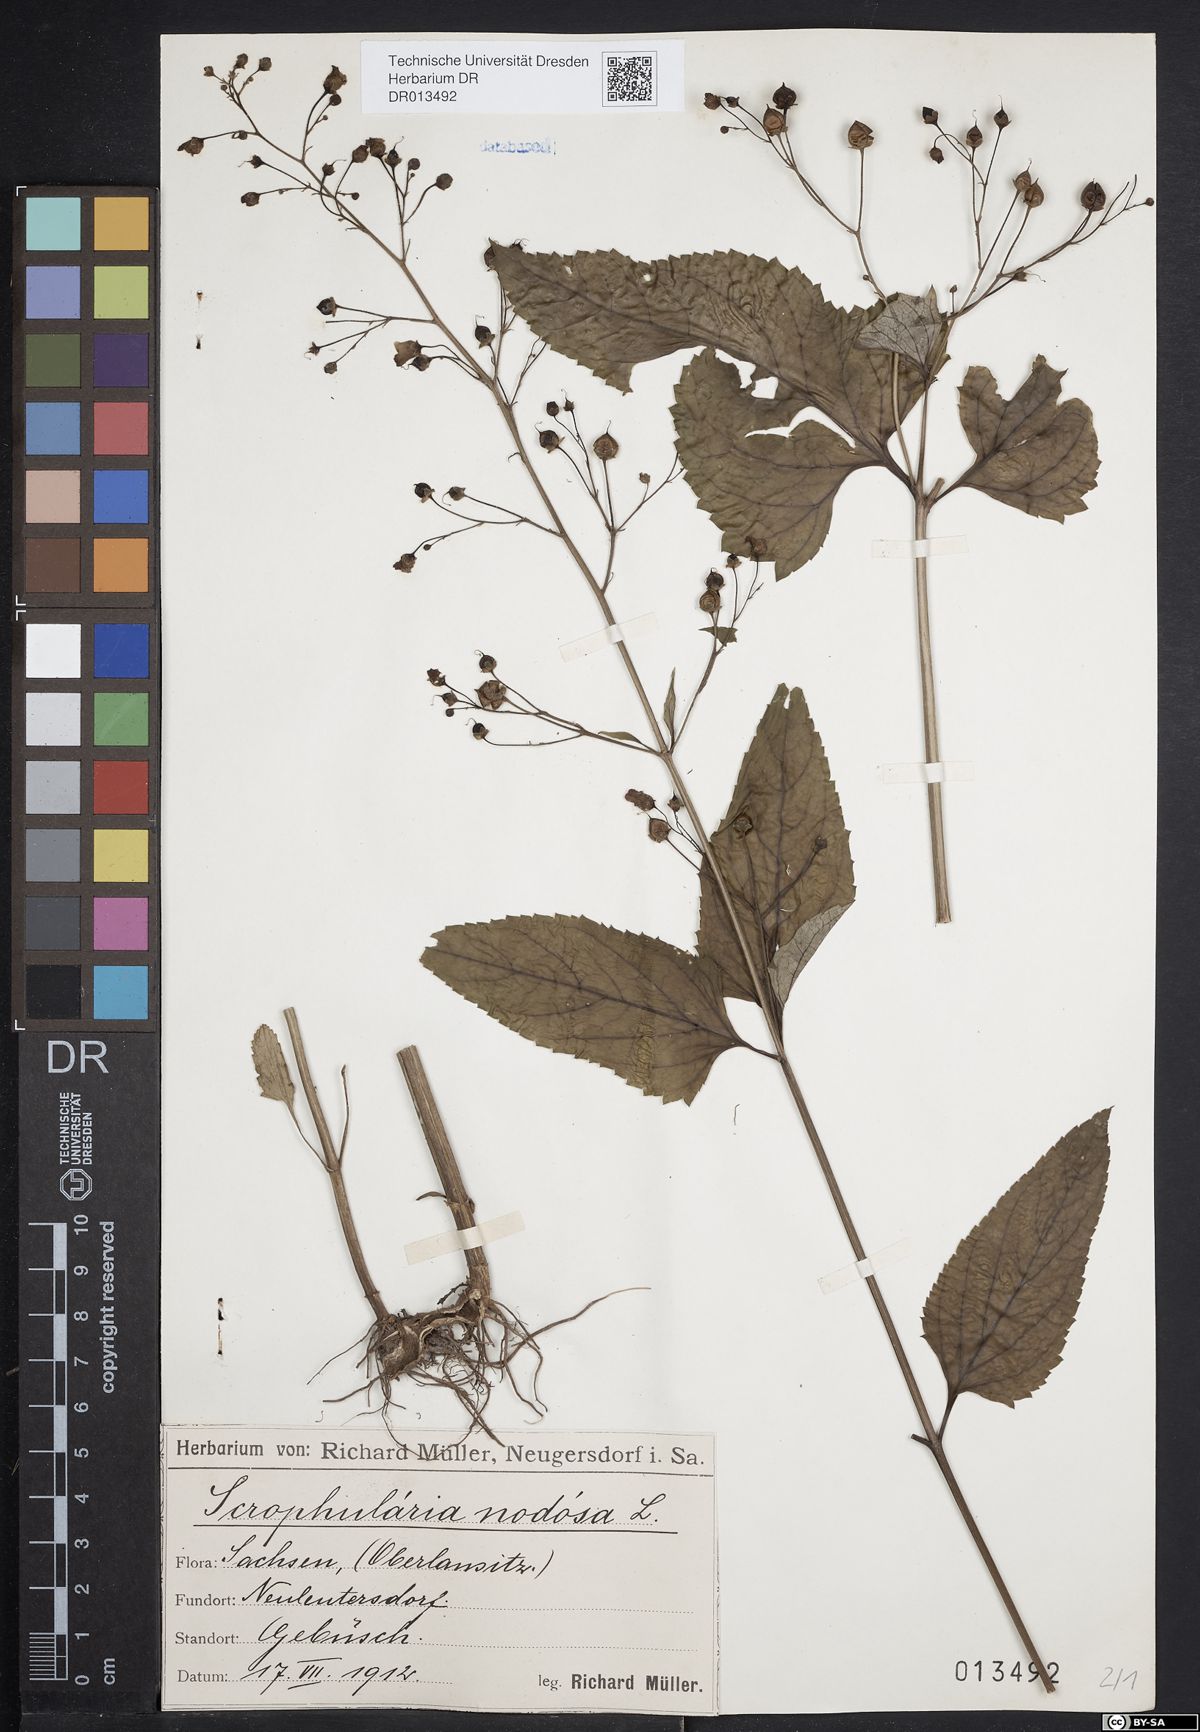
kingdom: Plantae
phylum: Tracheophyta
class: Magnoliopsida
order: Lamiales
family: Scrophulariaceae
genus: Scrophularia
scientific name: Scrophularia nodosa
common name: Common figwort
